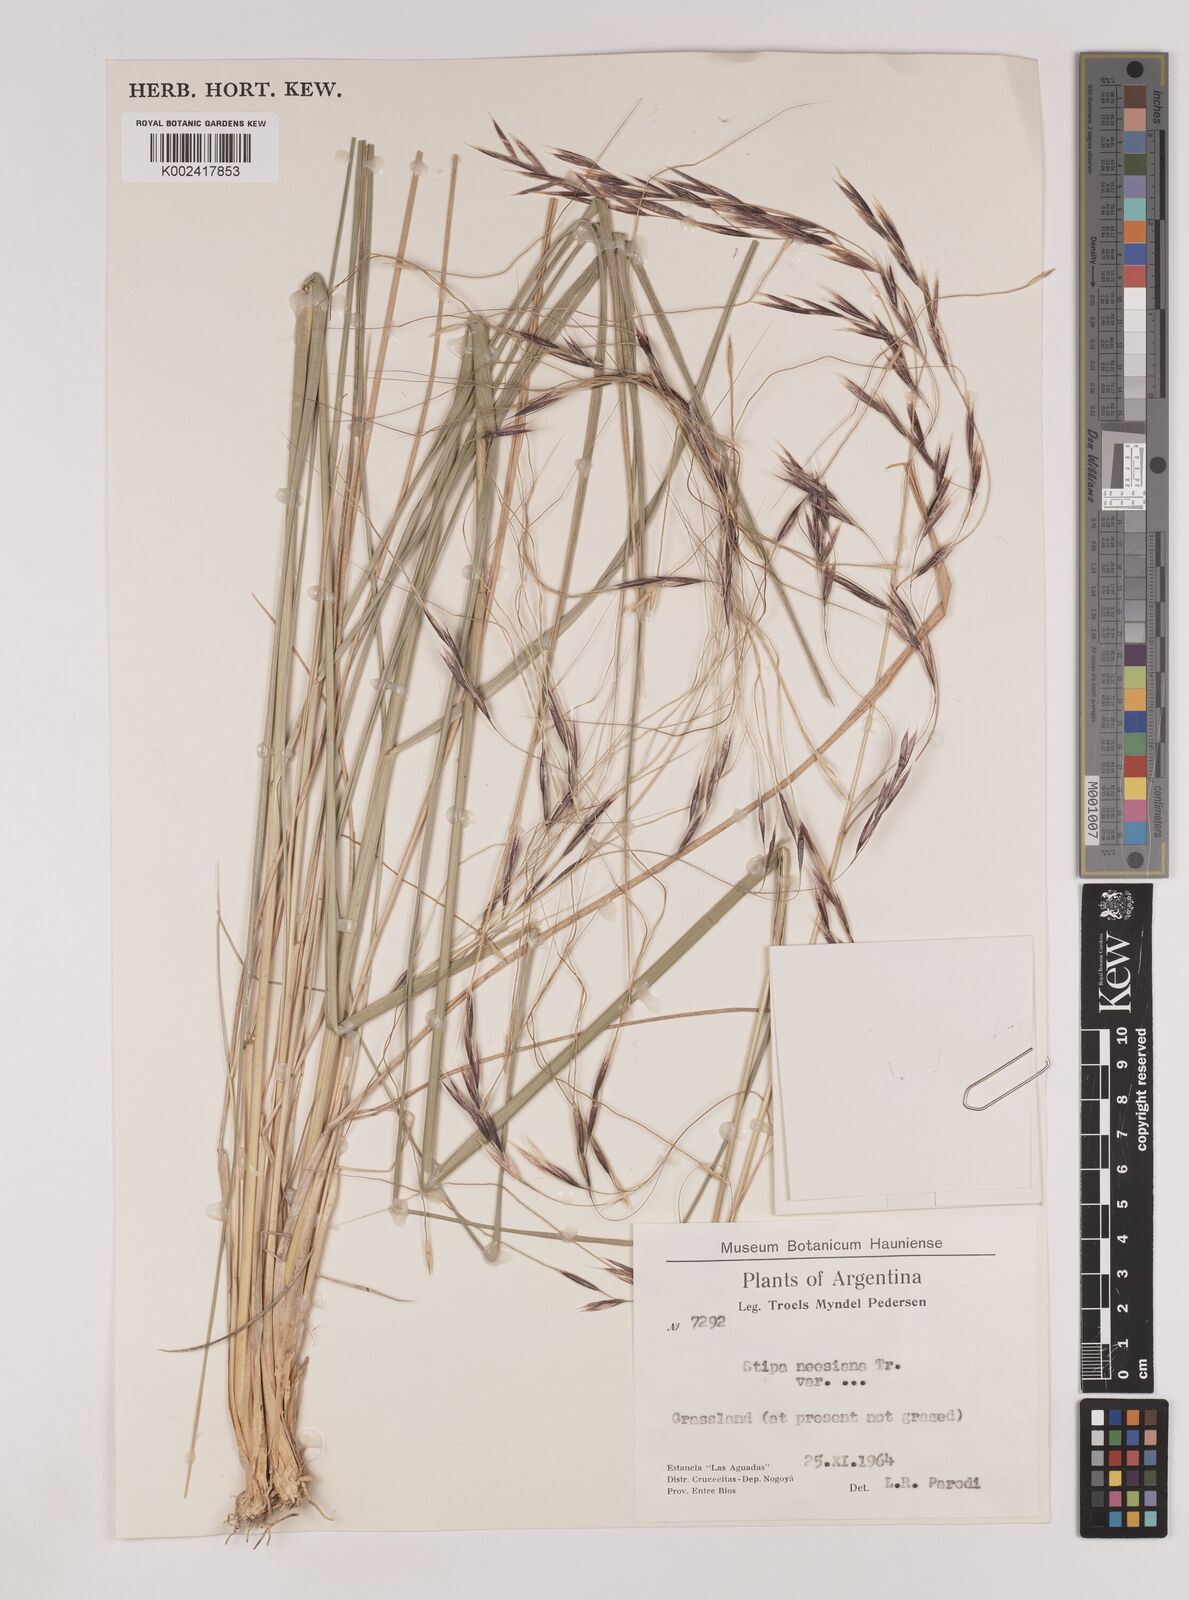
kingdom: Plantae
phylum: Tracheophyta
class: Liliopsida
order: Poales
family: Poaceae
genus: Nassella
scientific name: Nassella neesiana
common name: American needle-grass
